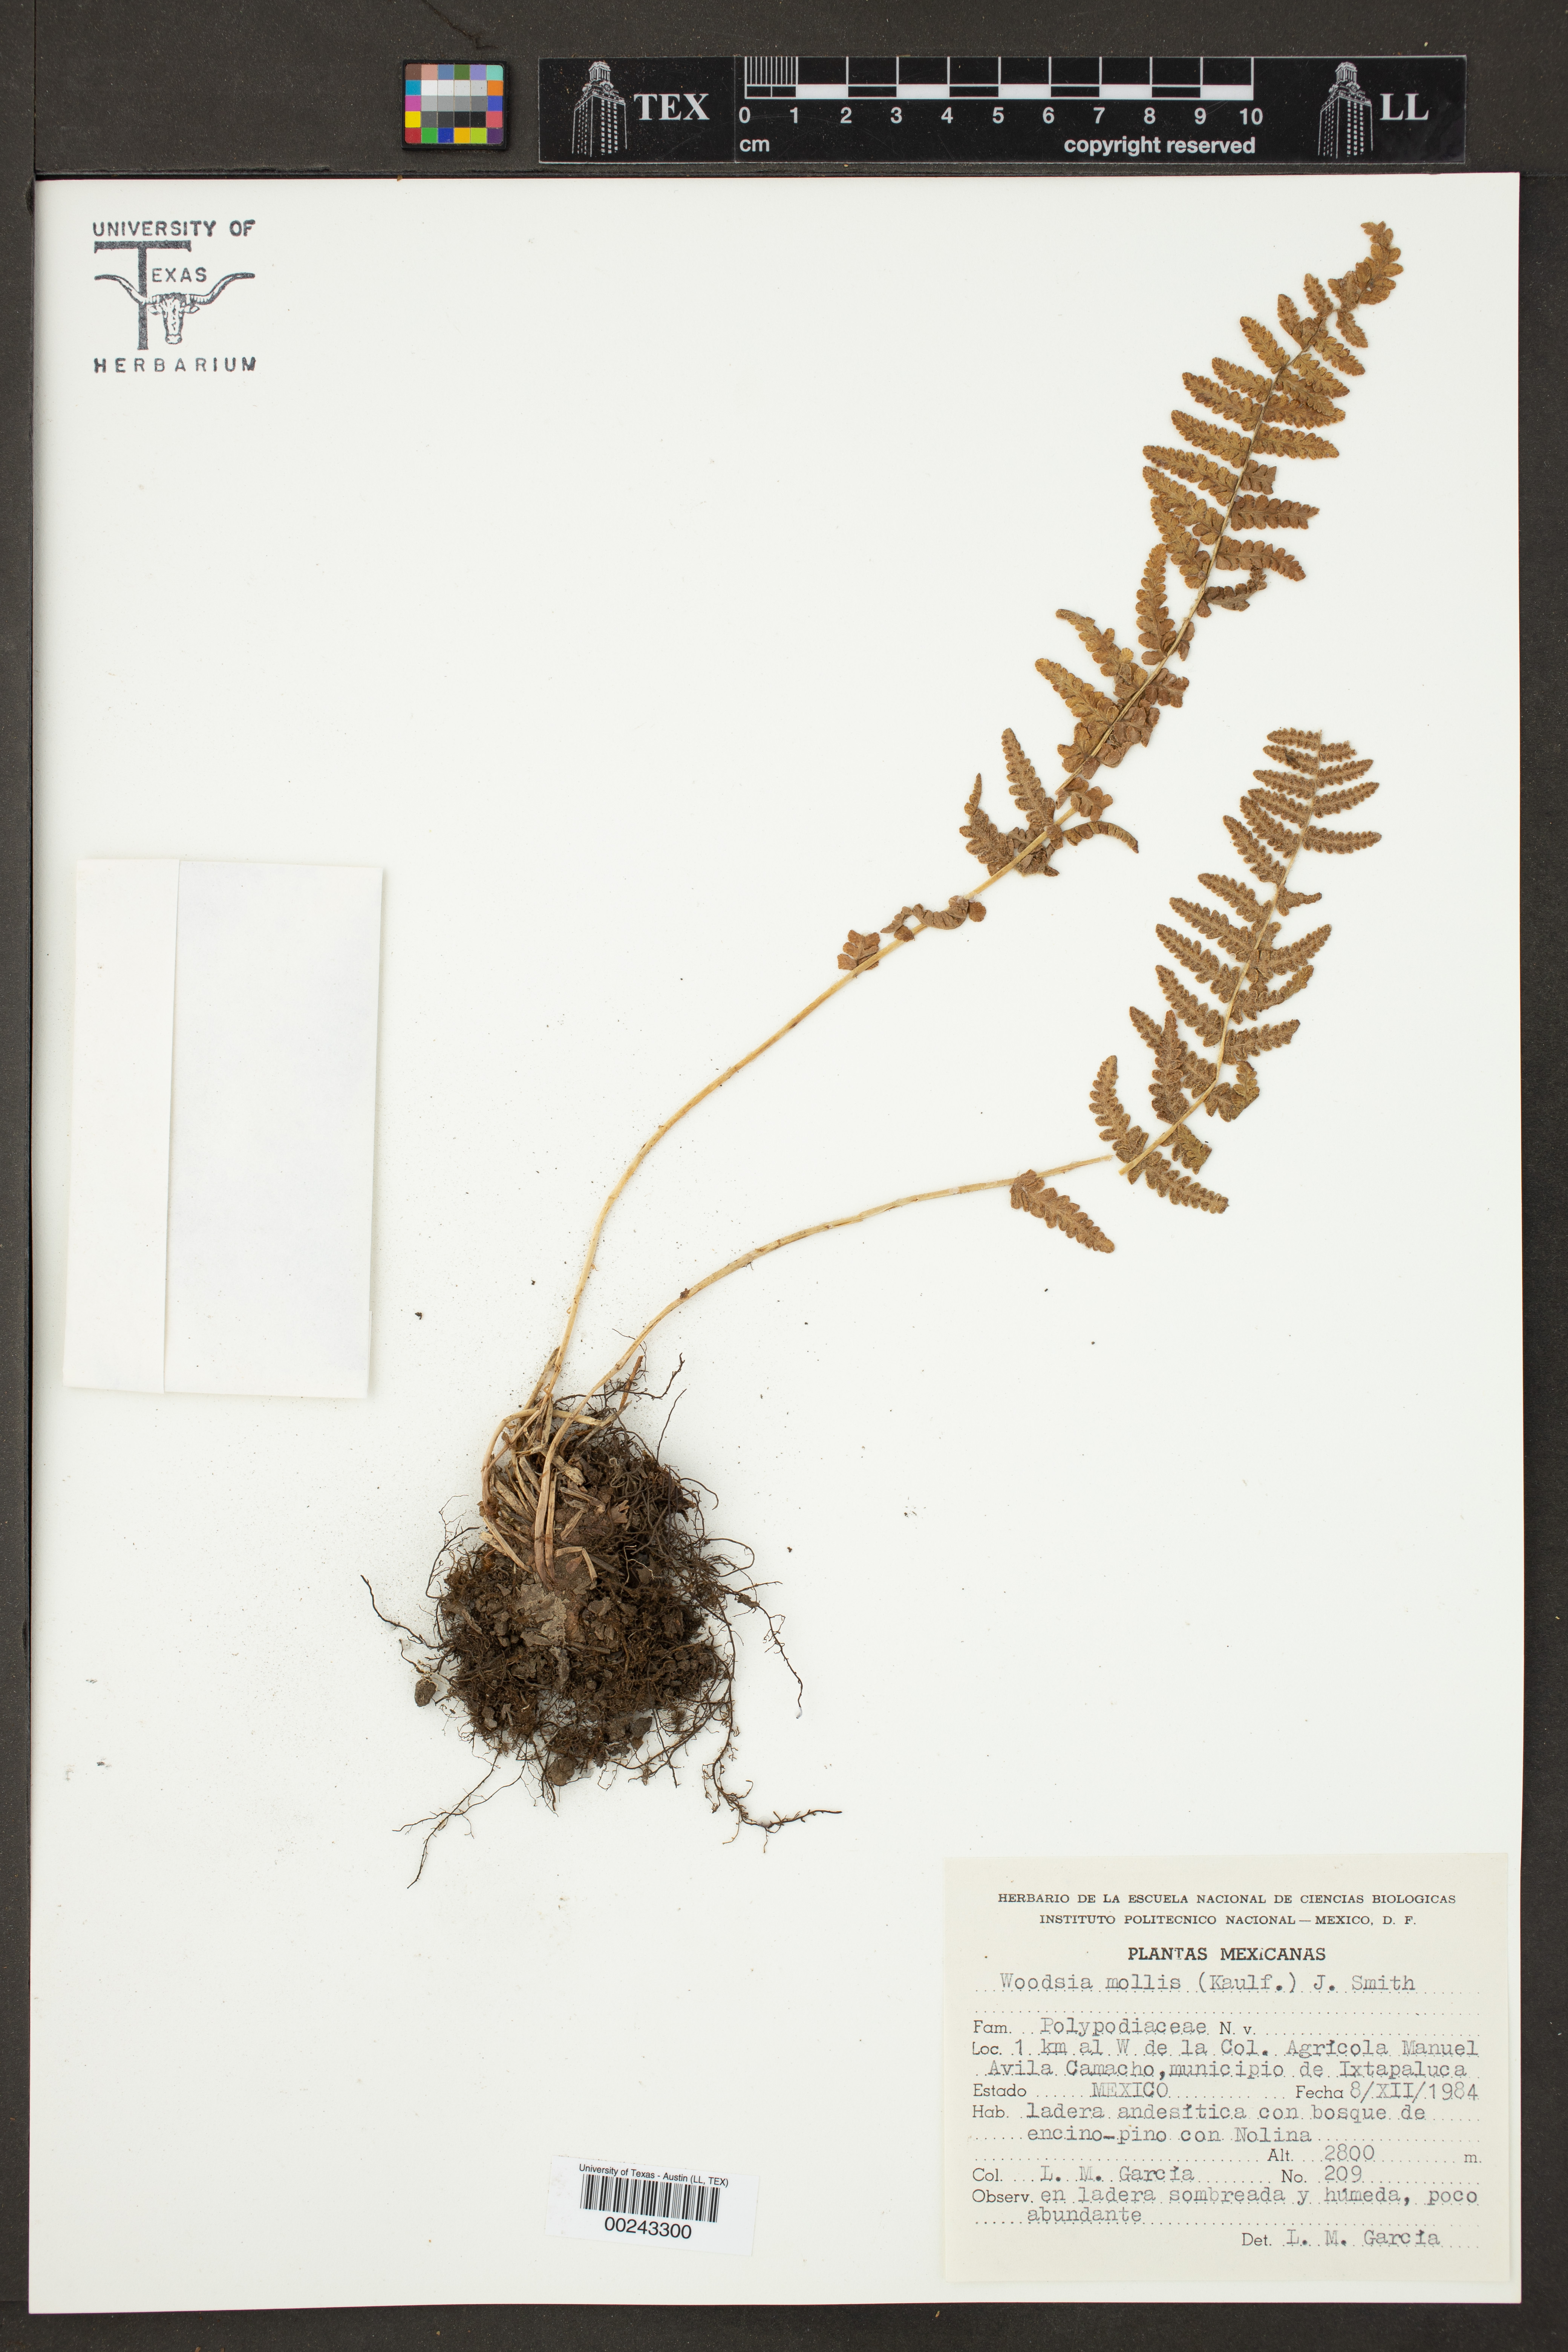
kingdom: Plantae
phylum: Tracheophyta
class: Polypodiopsida
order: Polypodiales
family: Woodsiaceae
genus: Physematium
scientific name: Physematium molle
